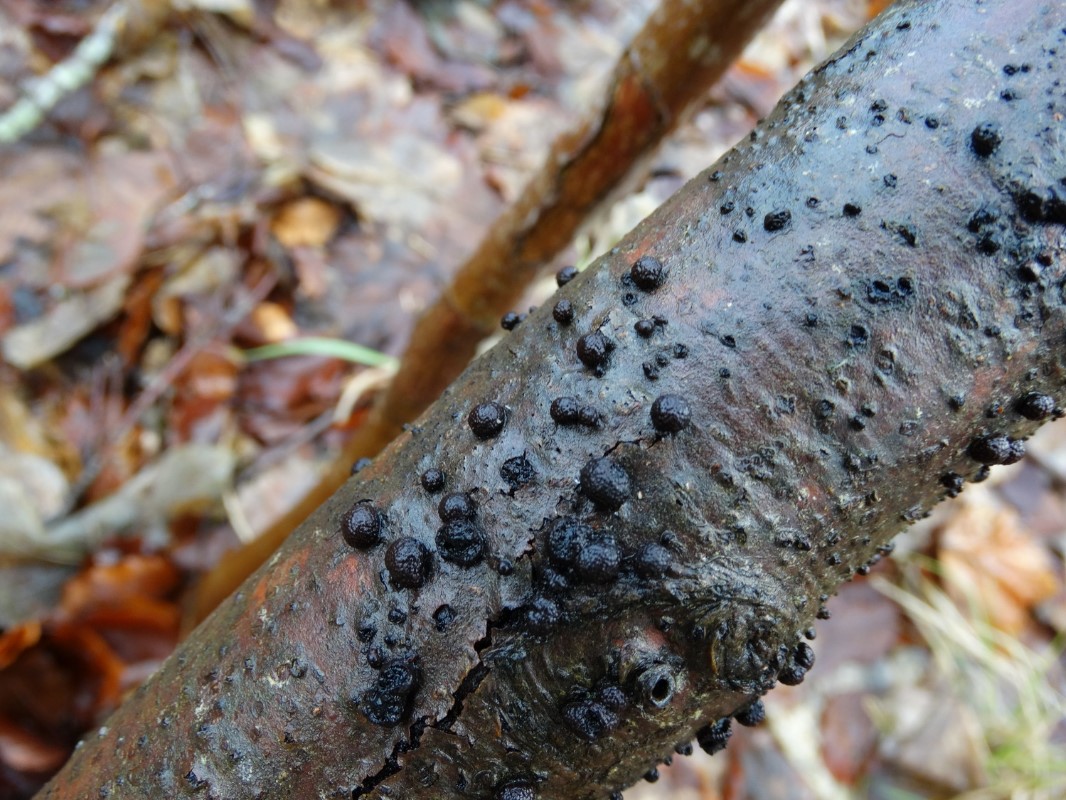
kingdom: Fungi
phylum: Ascomycota
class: Sordariomycetes
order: Xylariales
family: Hypoxylaceae
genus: Hypoxylon
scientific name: Hypoxylon fragiforme
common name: kuljordbær
